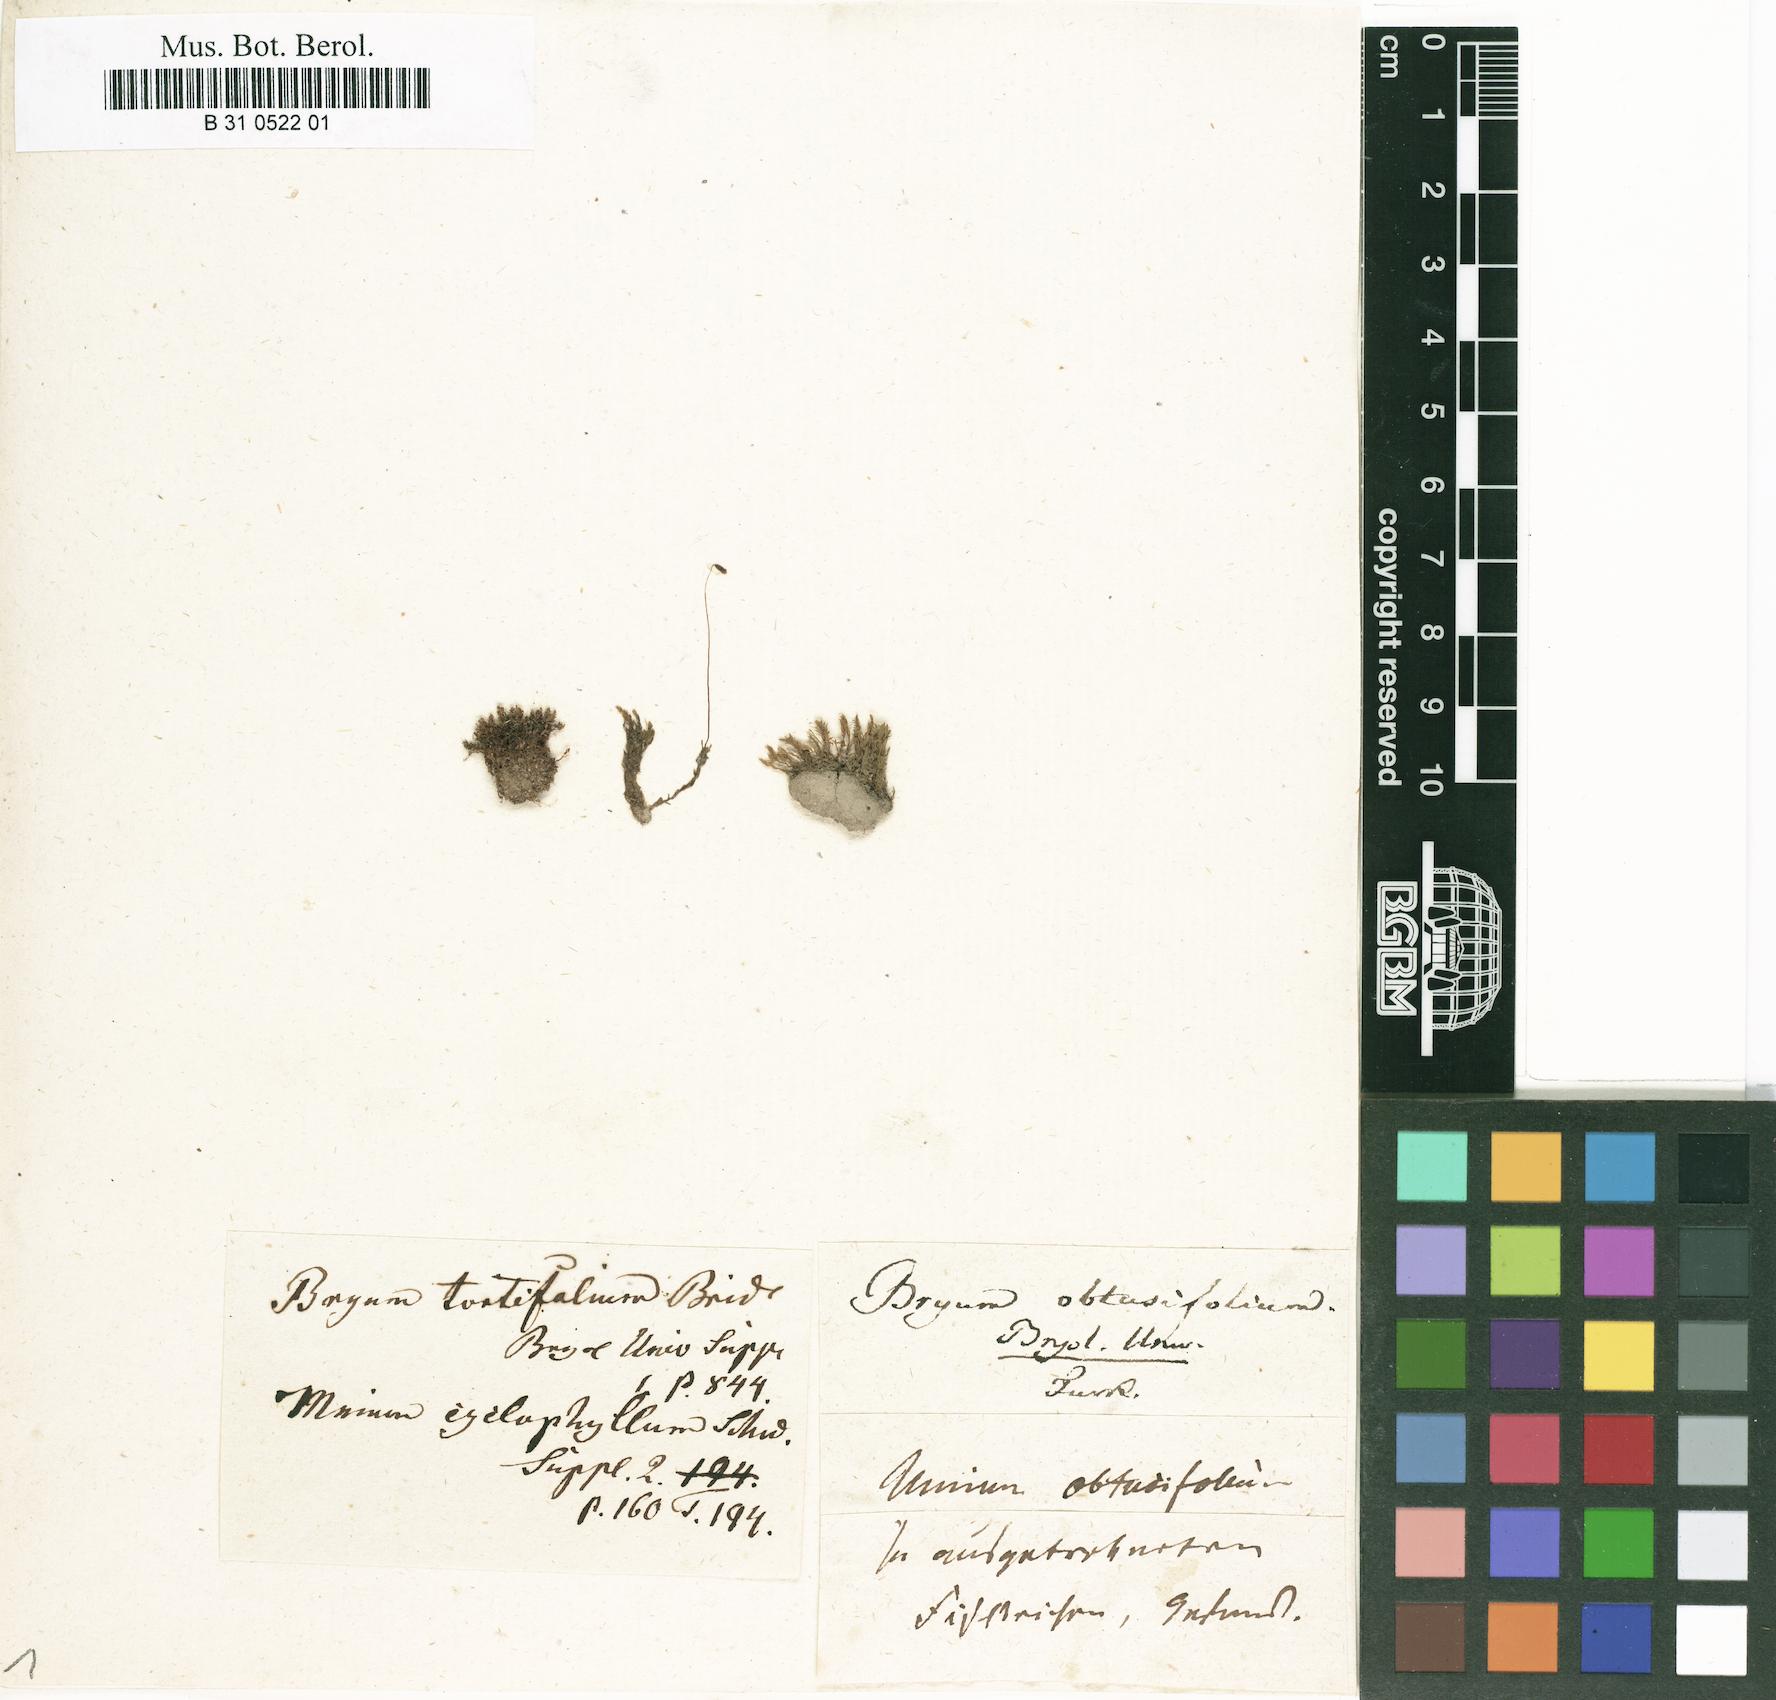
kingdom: Plantae
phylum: Bryophyta
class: Bryopsida
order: Bryales
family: Bryaceae
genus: Ptychostomum
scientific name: Ptychostomum cyclophyllum
